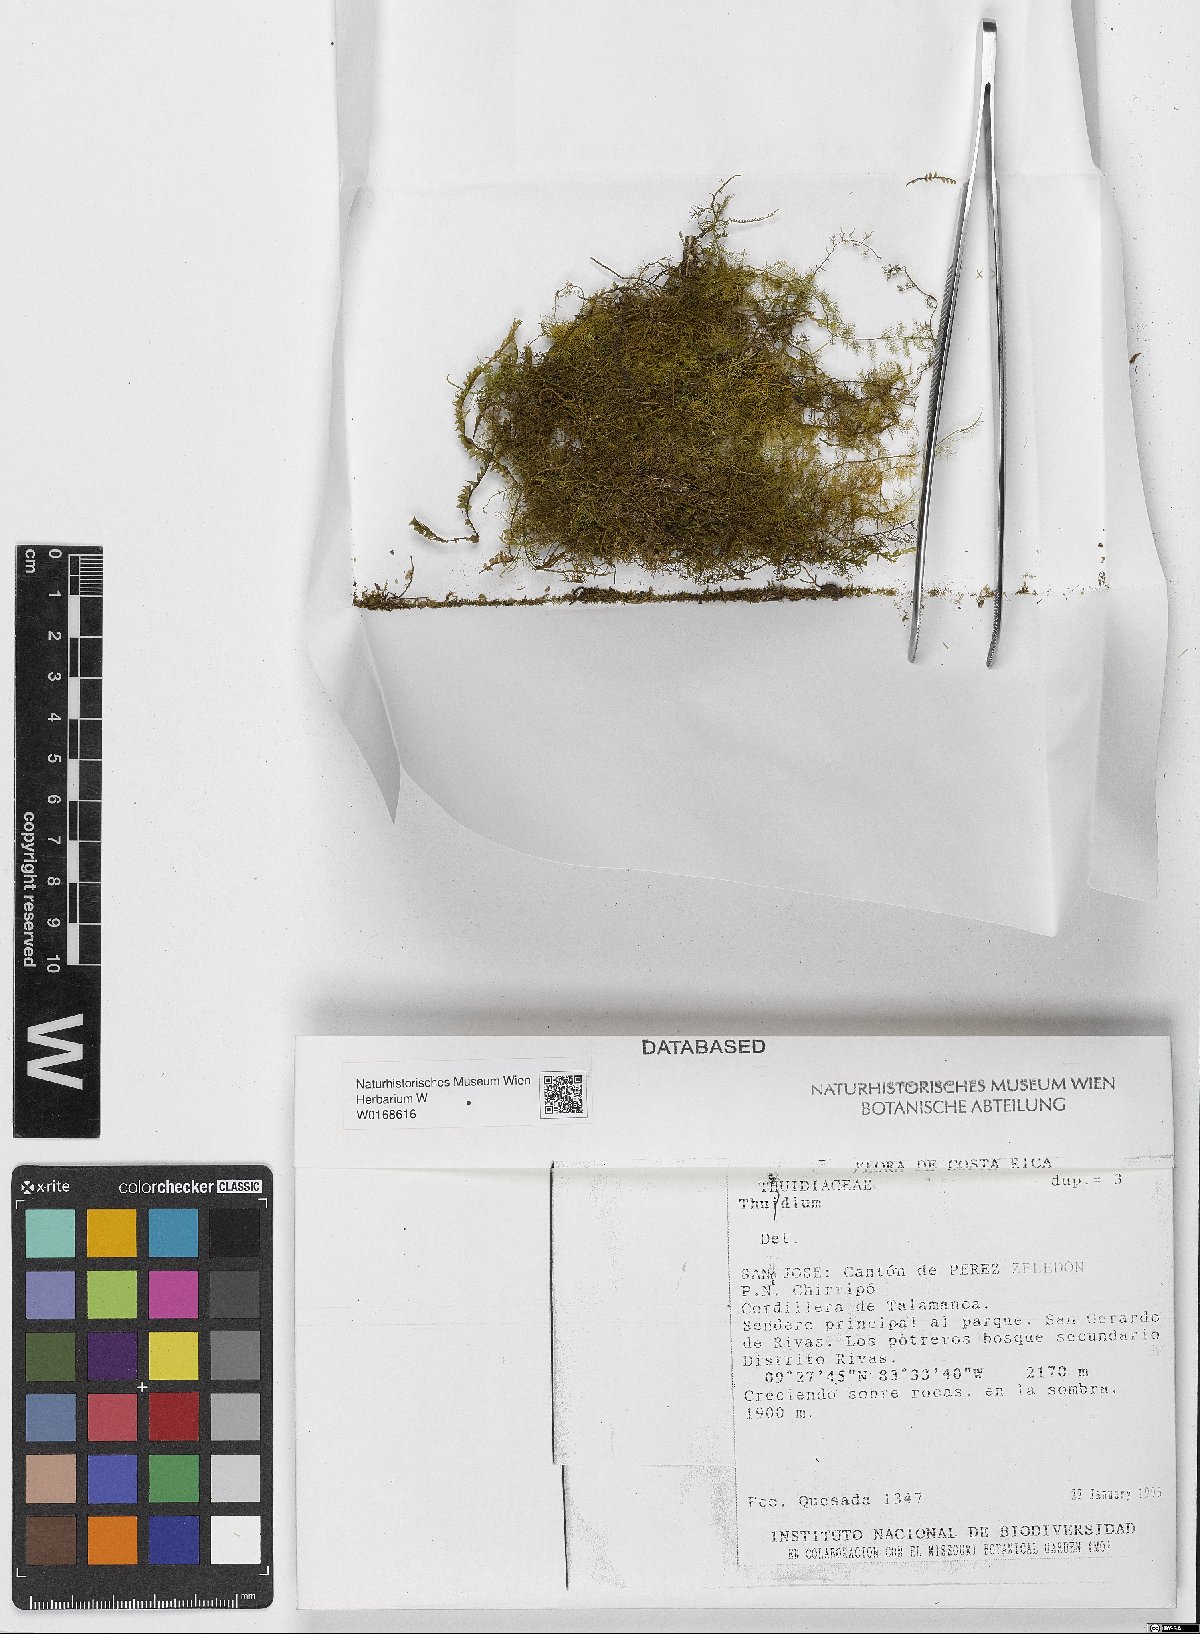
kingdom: Plantae
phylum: Bryophyta
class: Bryopsida
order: Hypnales
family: Thuidiaceae
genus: Thuidium
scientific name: Thuidium
